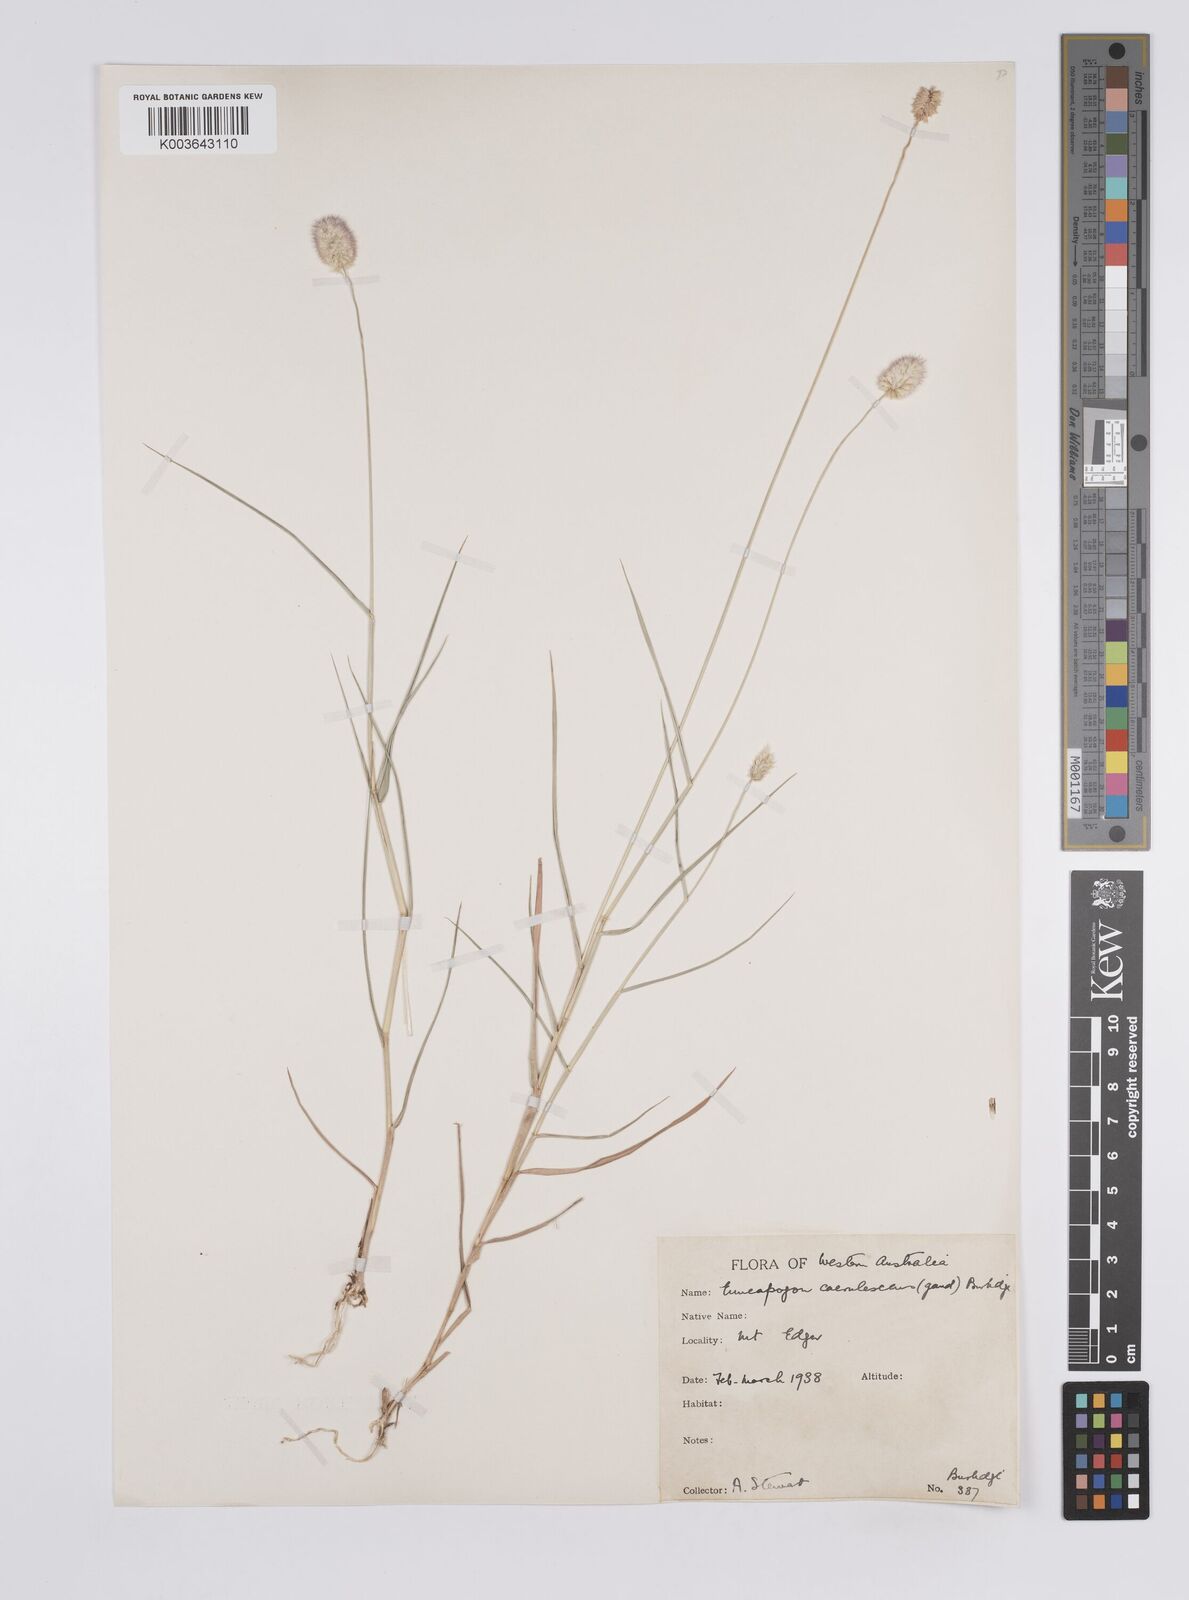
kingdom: Plantae
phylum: Tracheophyta
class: Liliopsida
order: Poales
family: Poaceae
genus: Enneapogon
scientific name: Enneapogon caerulescens
